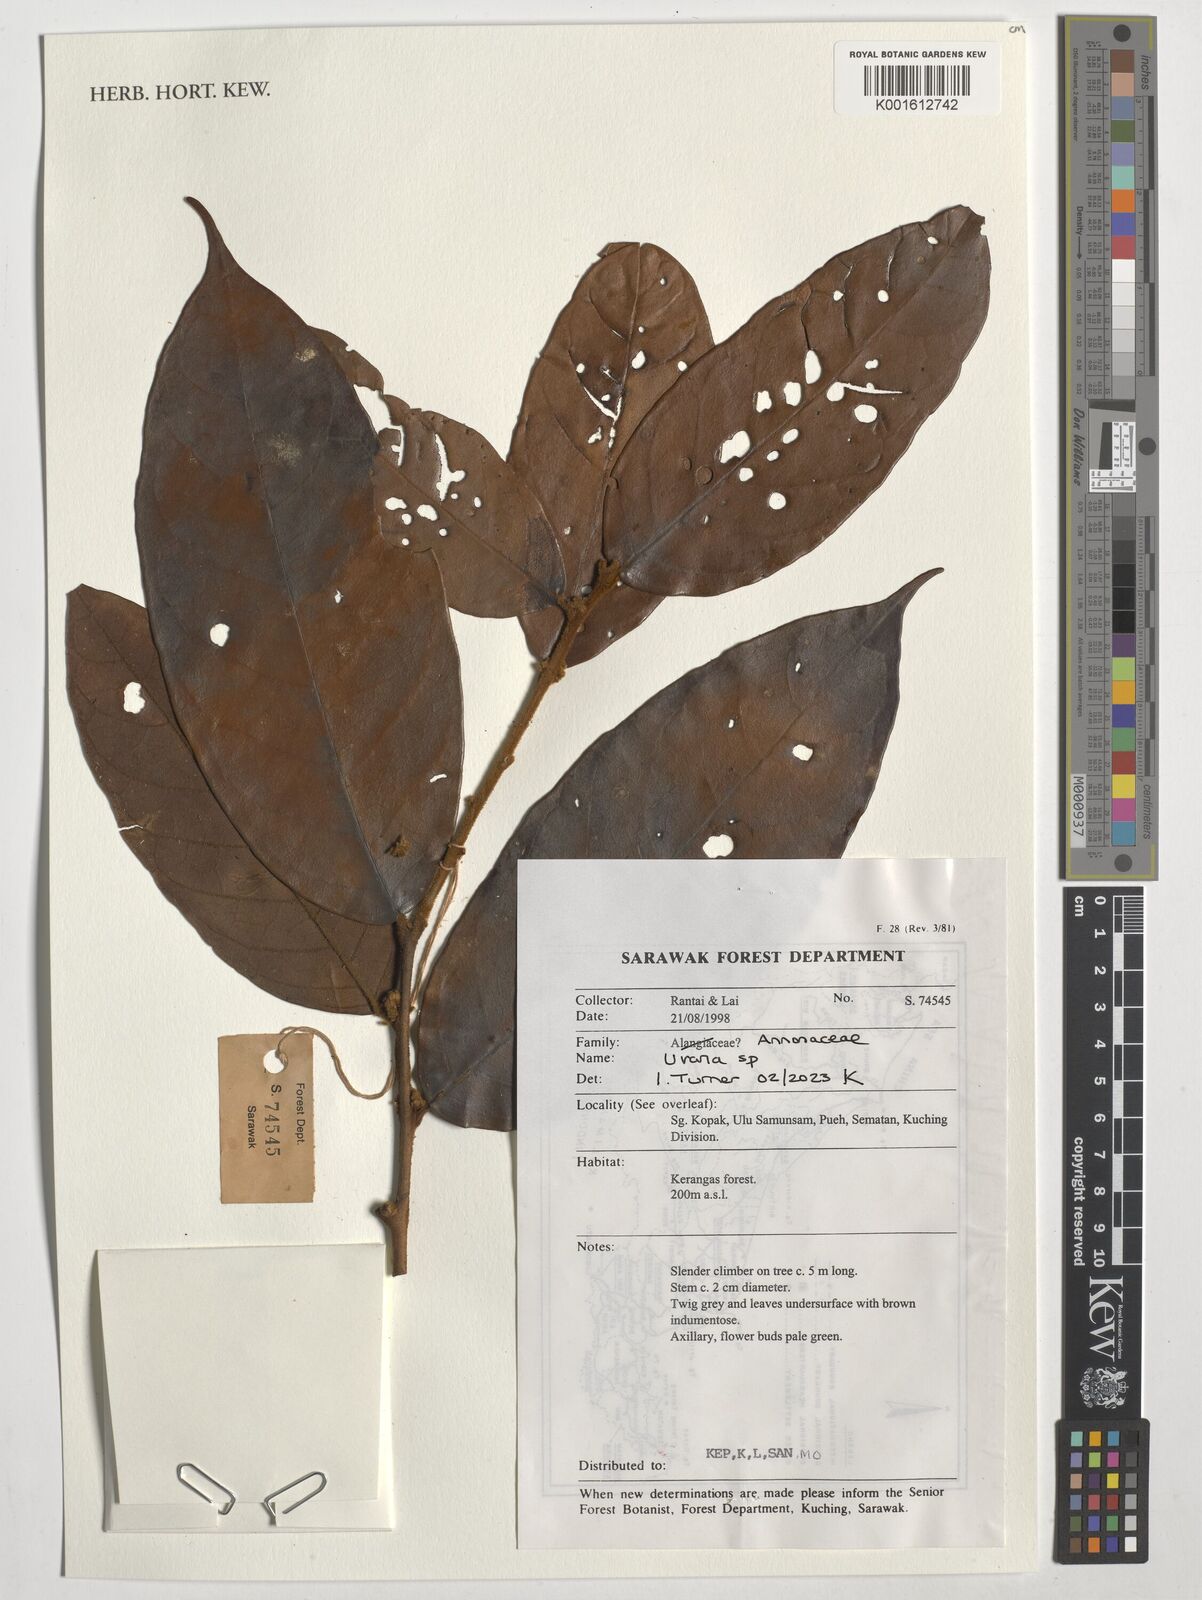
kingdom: Plantae
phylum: Tracheophyta
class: Magnoliopsida
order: Magnoliales
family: Annonaceae
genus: Uvaria
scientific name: Uvaria
